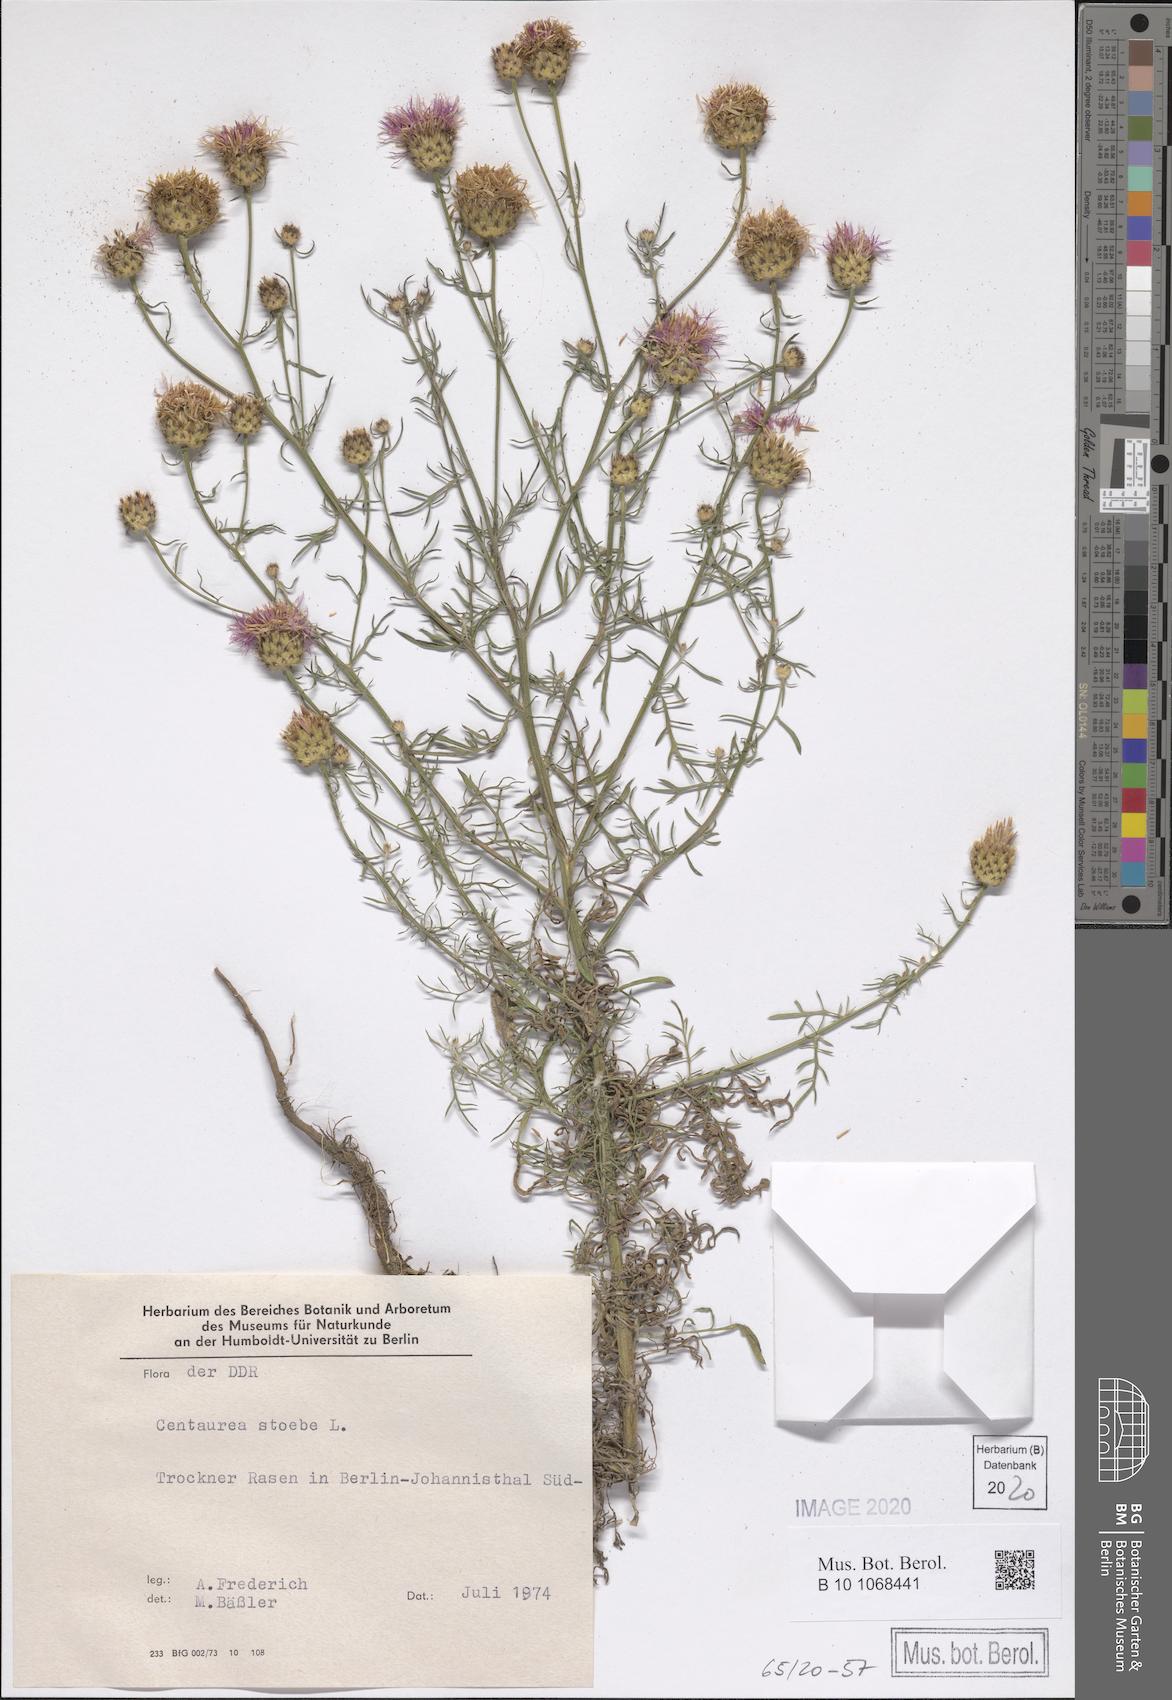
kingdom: Plantae
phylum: Tracheophyta
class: Magnoliopsida
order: Asterales
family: Asteraceae
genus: Centaurea
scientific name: Centaurea stoebe
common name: Spotted knapweed
